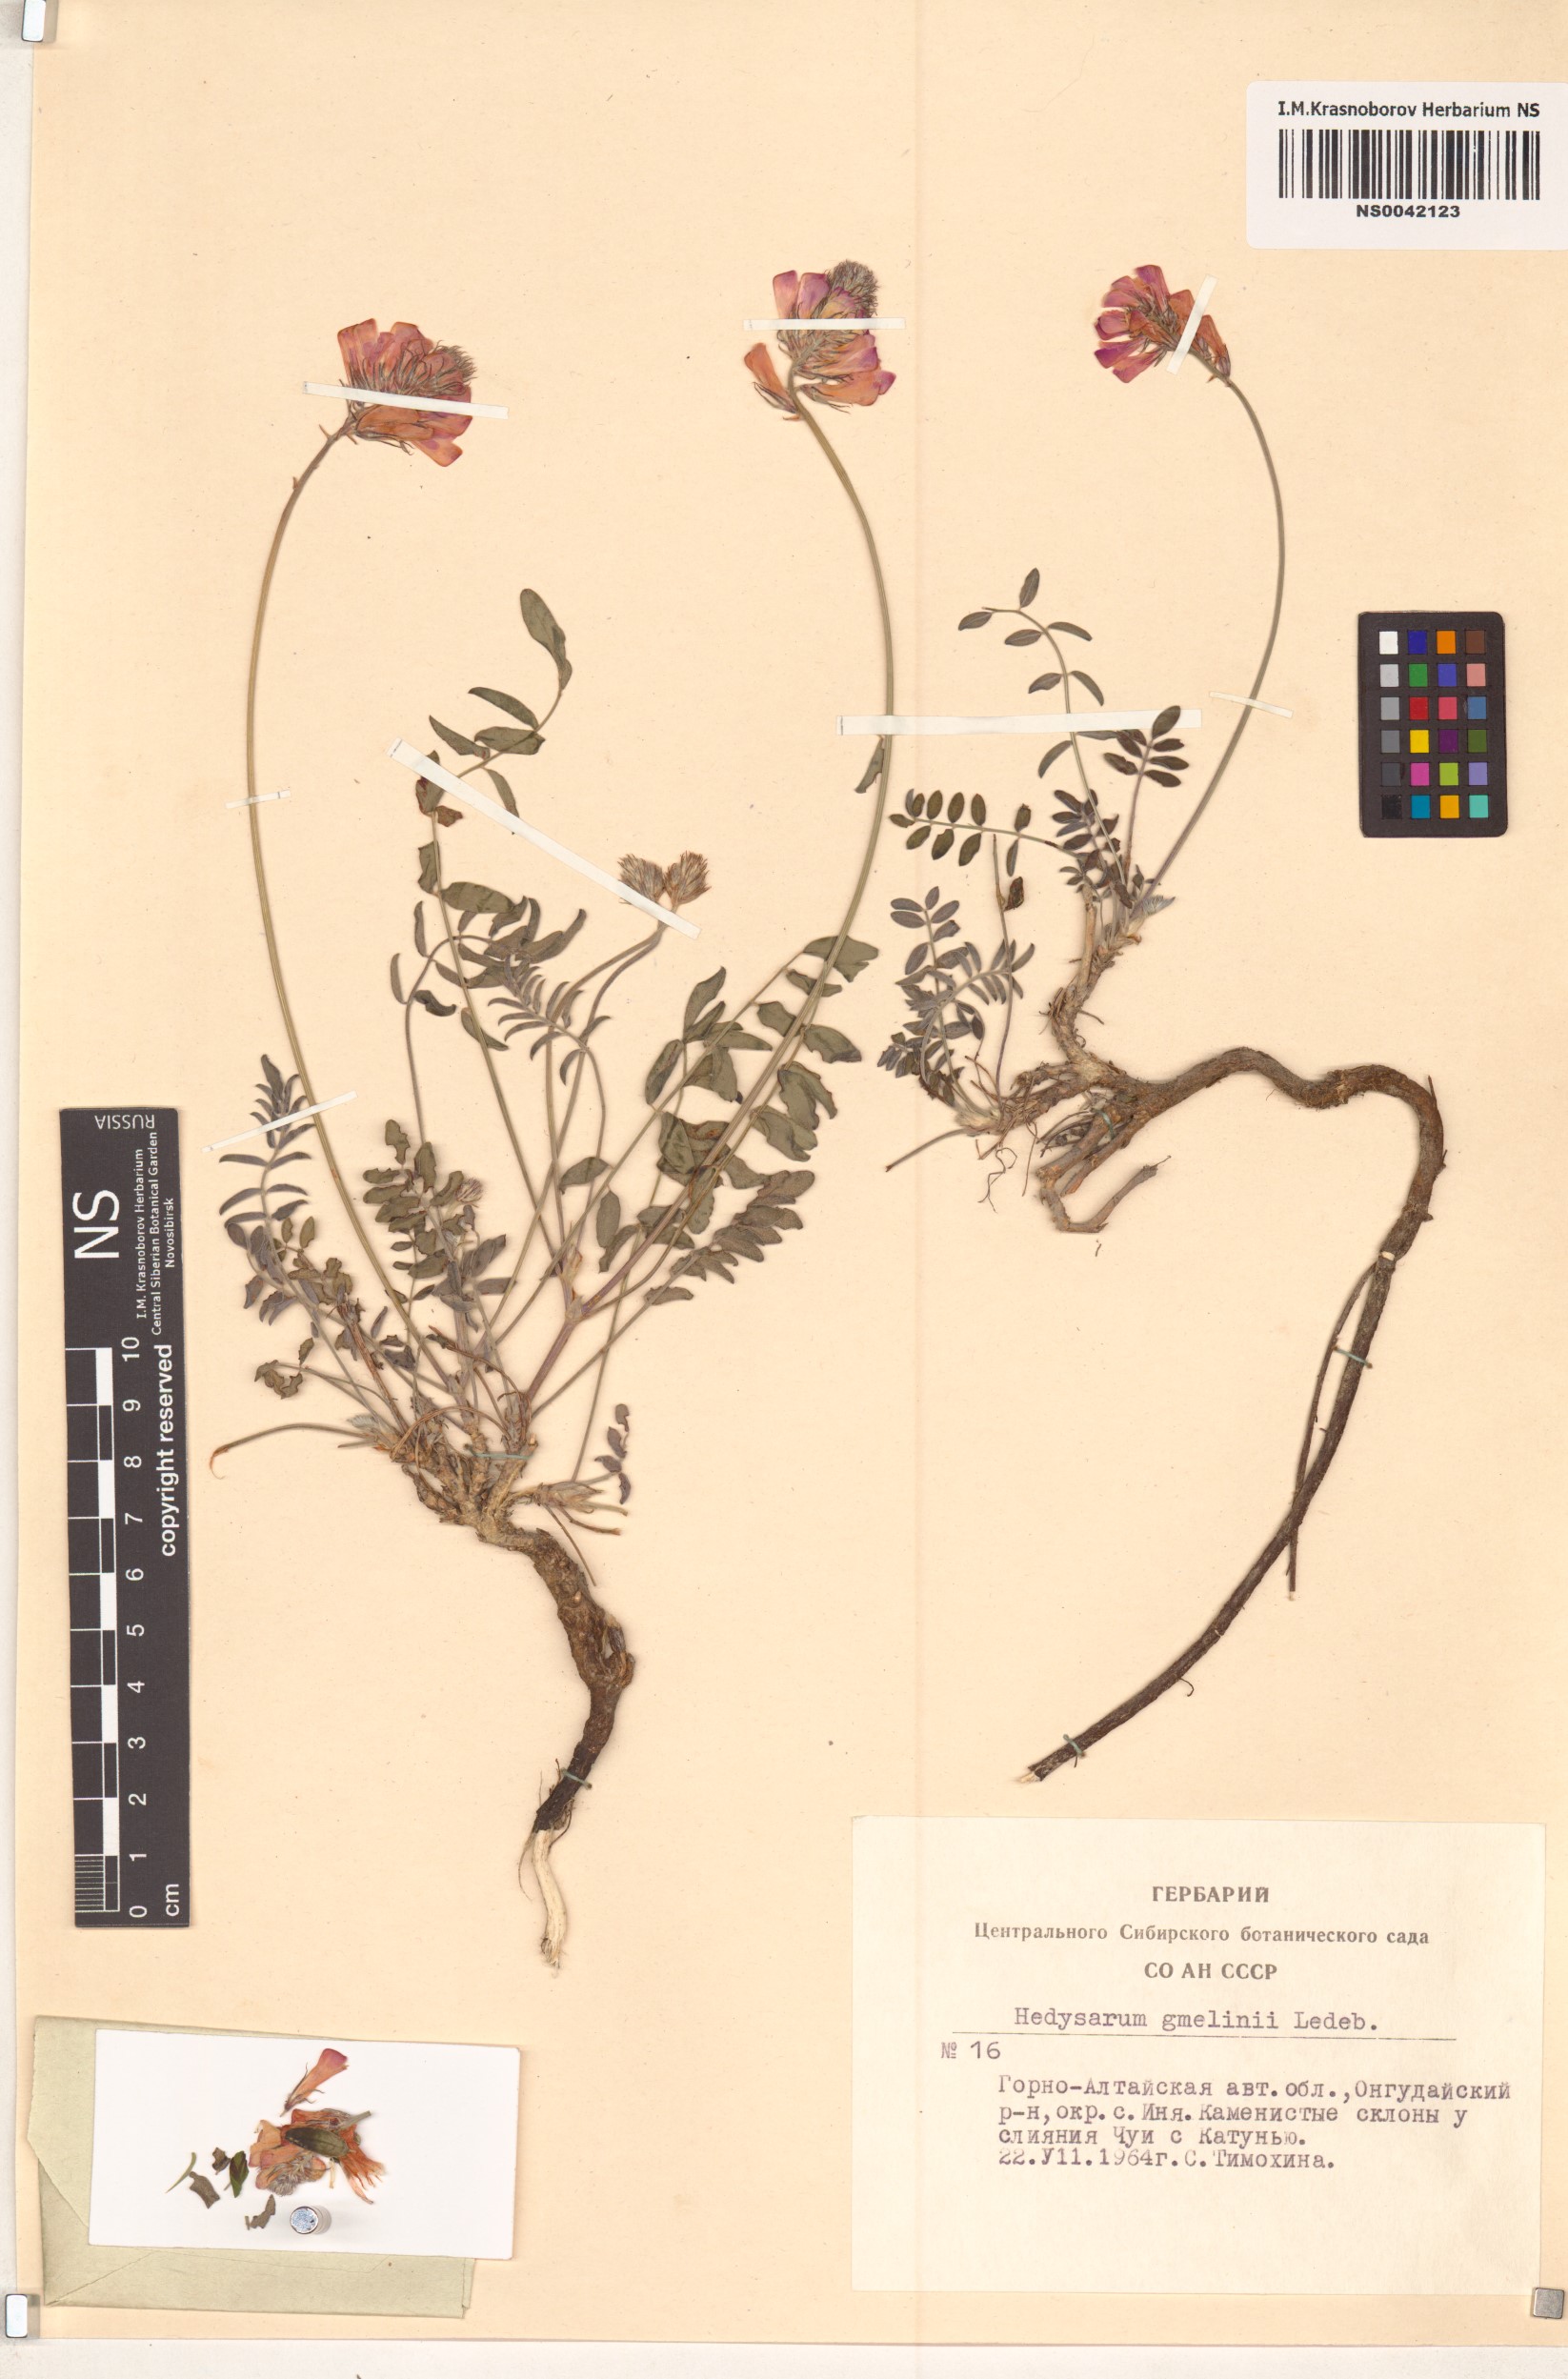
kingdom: Plantae
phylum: Tracheophyta
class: Magnoliopsida
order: Fabales
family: Fabaceae
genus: Hedysarum
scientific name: Hedysarum gmelinii
